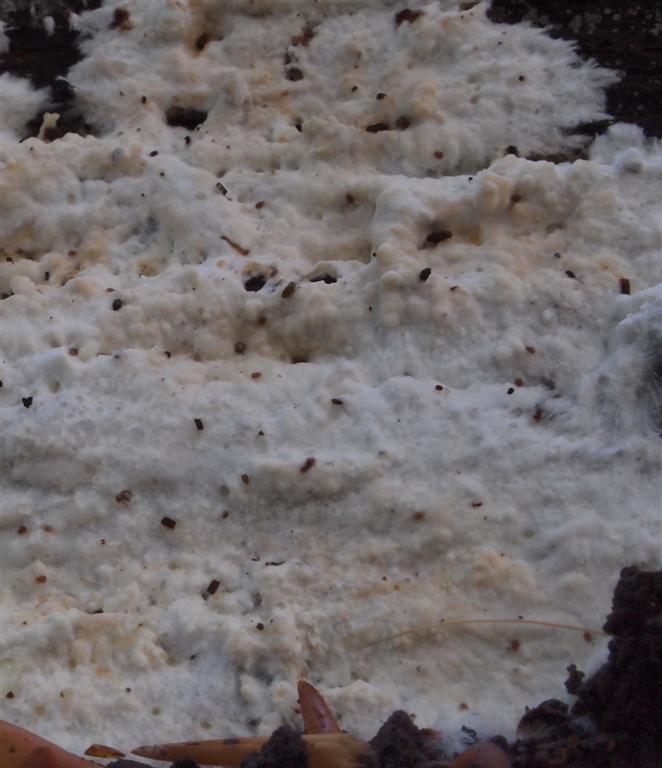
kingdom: Fungi
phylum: Basidiomycota
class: Agaricomycetes
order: Polyporales
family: Phanerochaetaceae
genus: Phanerochaete
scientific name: Phanerochaete sordida
